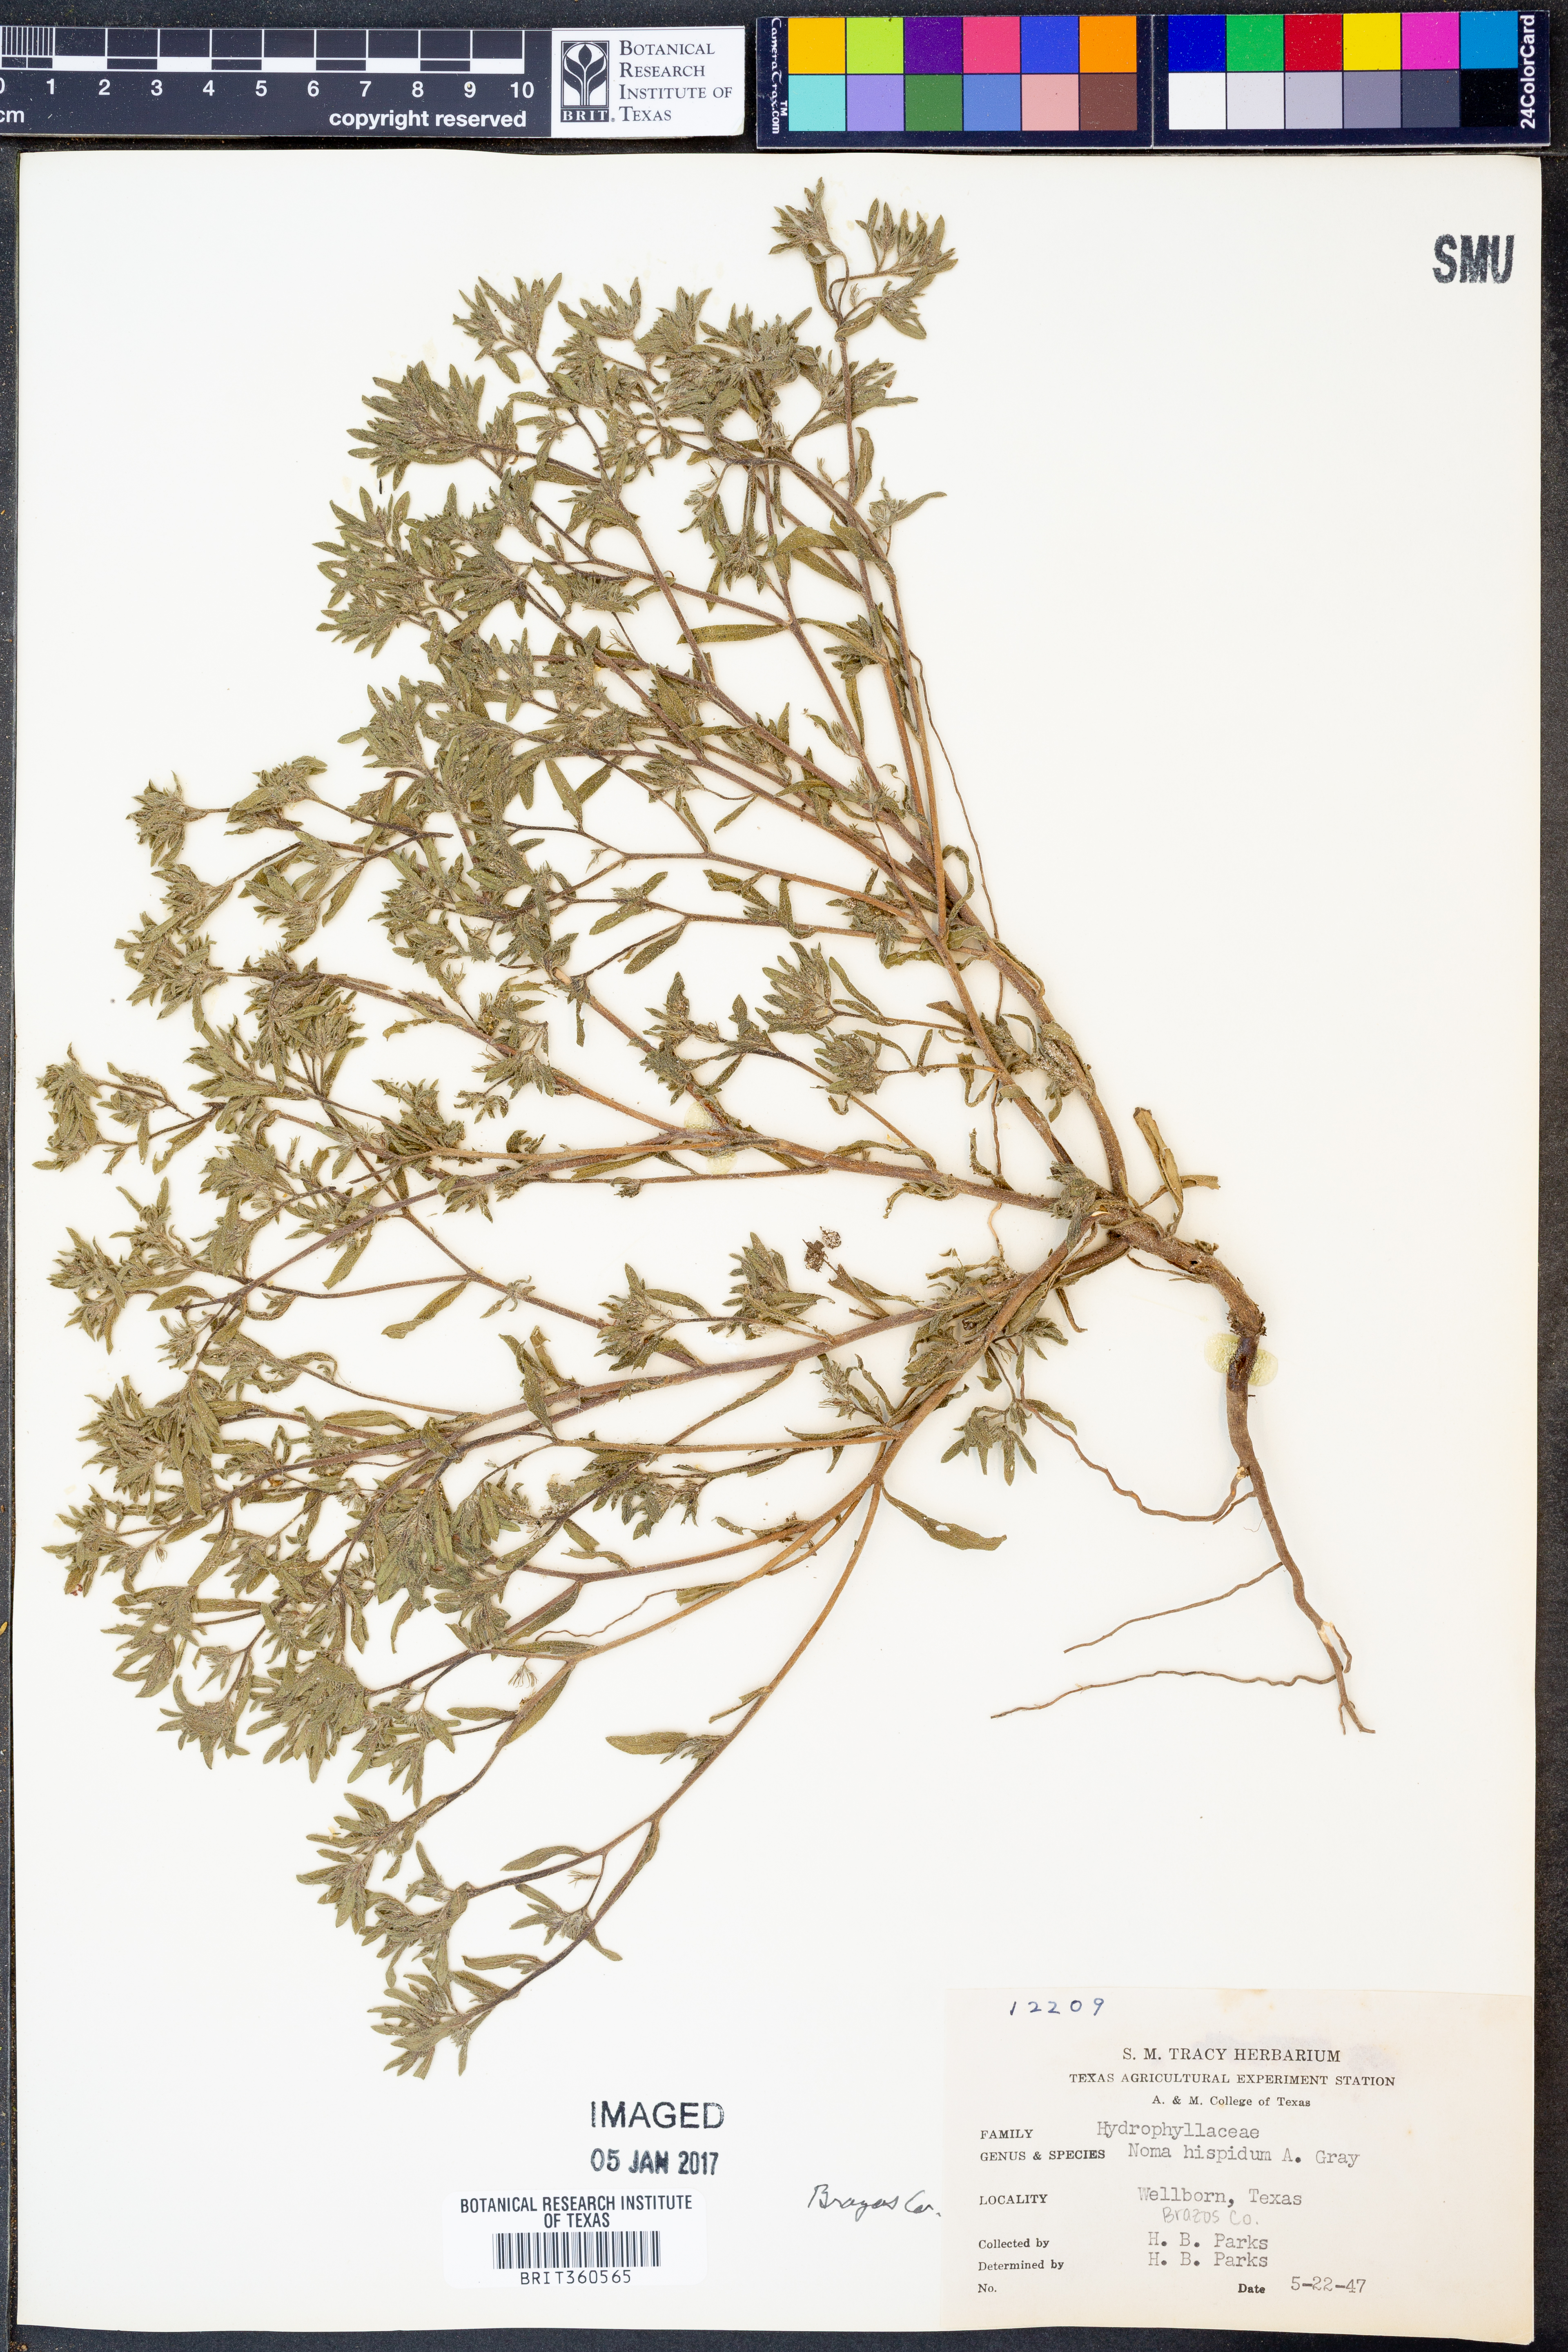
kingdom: Plantae
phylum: Tracheophyta
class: Magnoliopsida
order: Boraginales
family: Namaceae
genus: Nama
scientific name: Nama hispida
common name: Bristly nama
